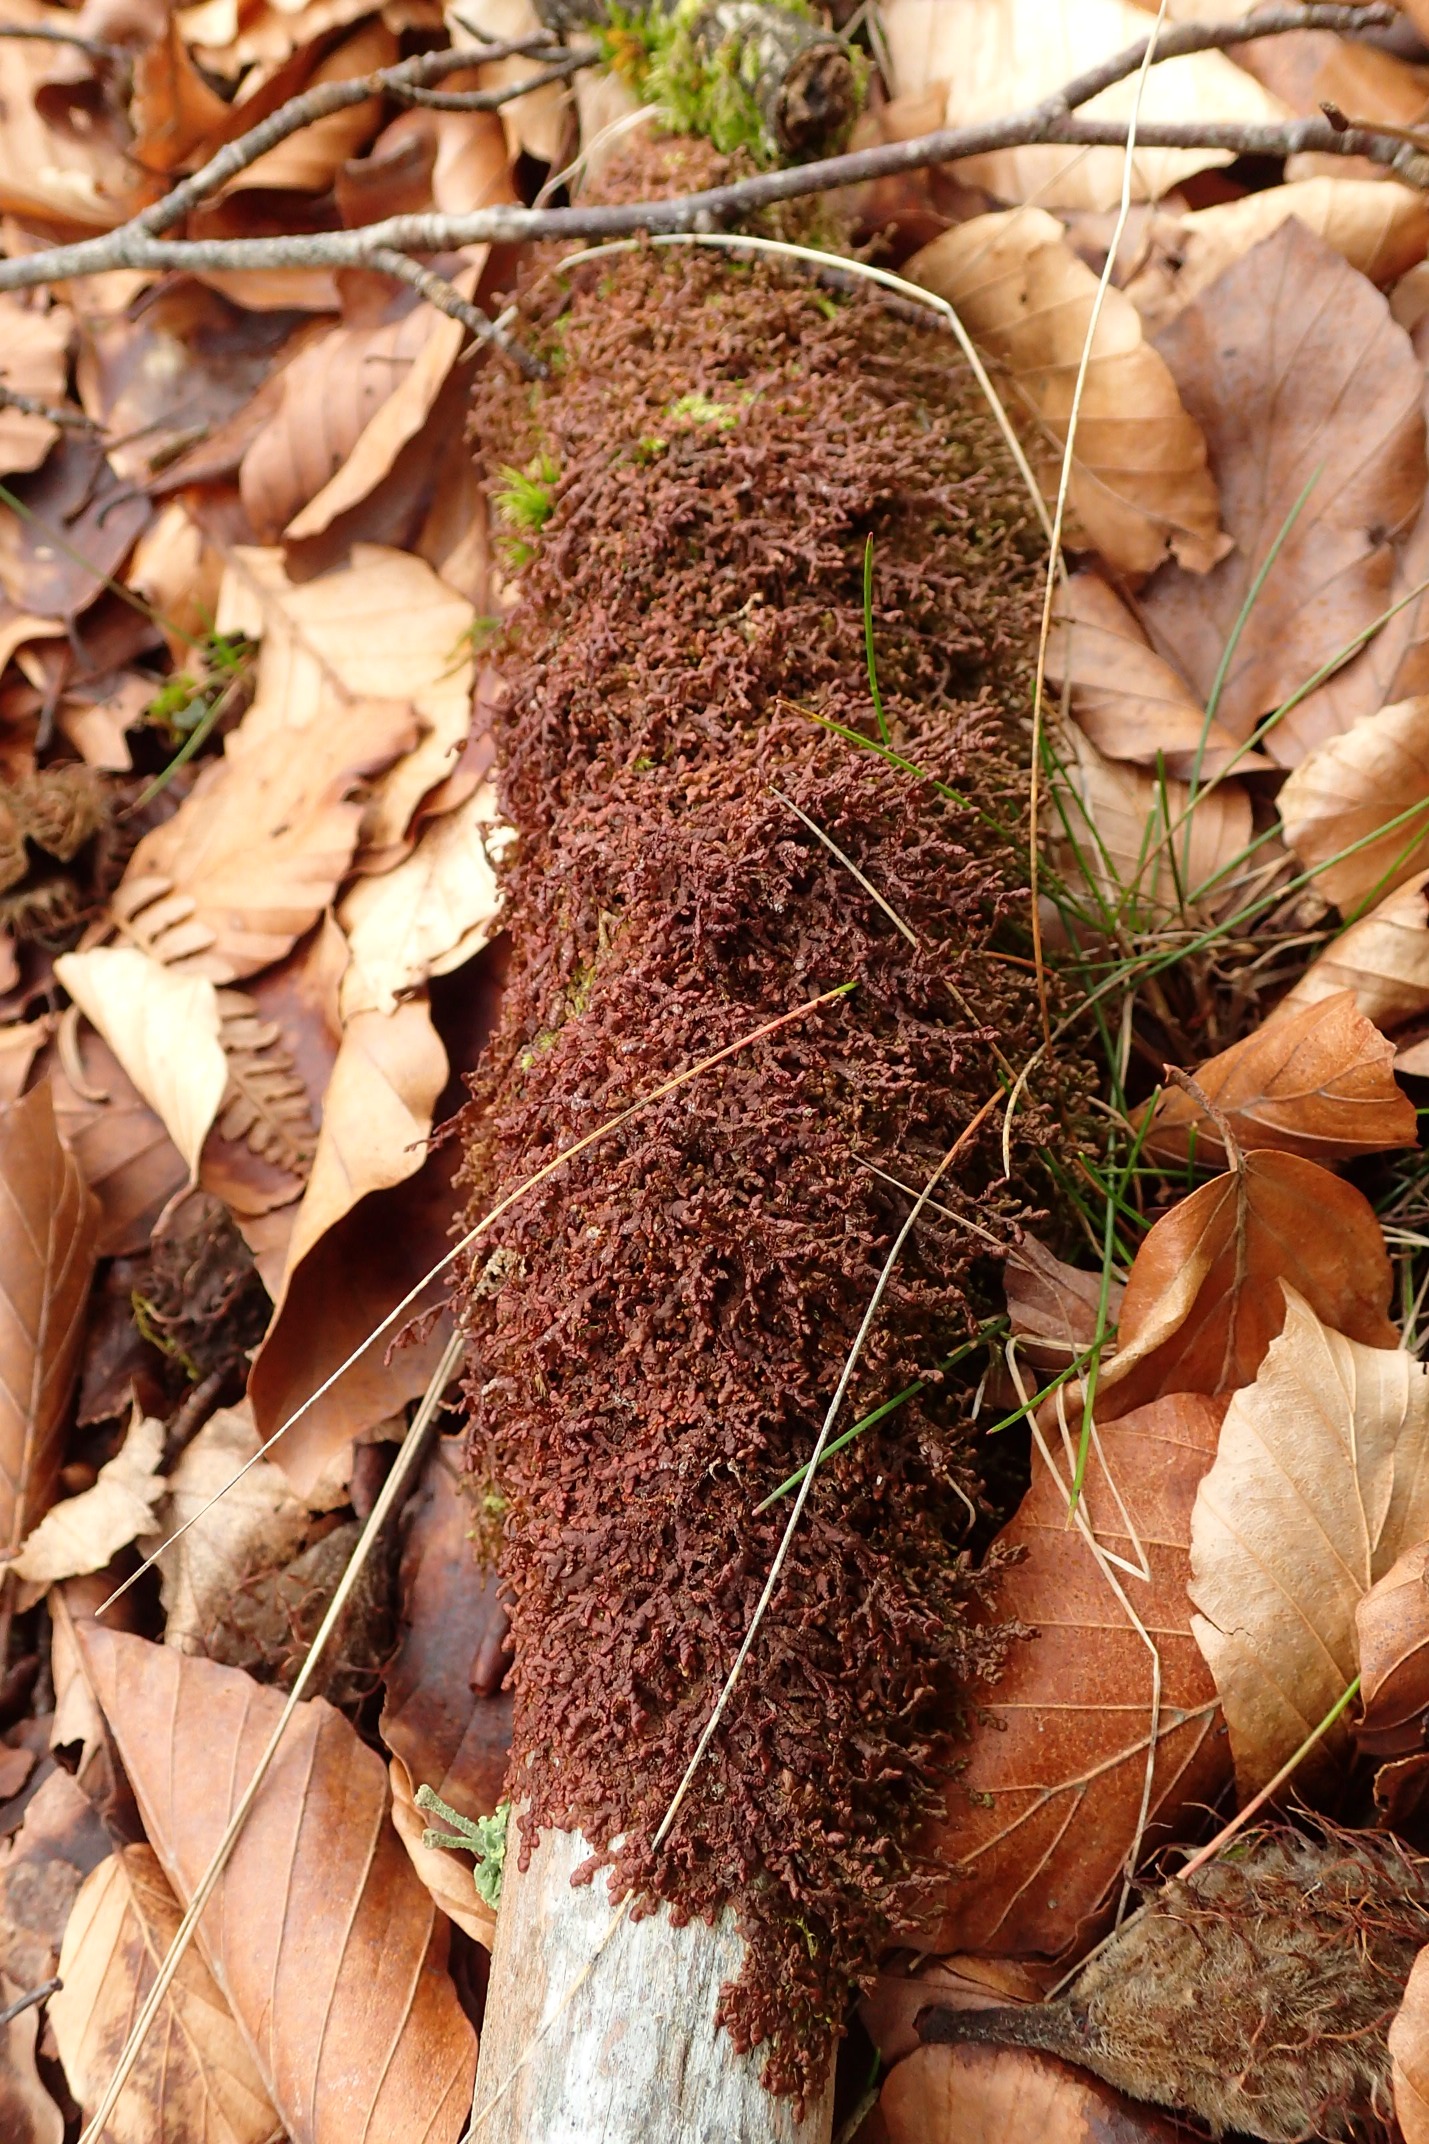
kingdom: Plantae
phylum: Marchantiophyta
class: Jungermanniopsida
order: Porellales
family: Frullaniaceae
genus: Frullania
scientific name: Frullania tamarisci
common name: Glinsende bronzemos
